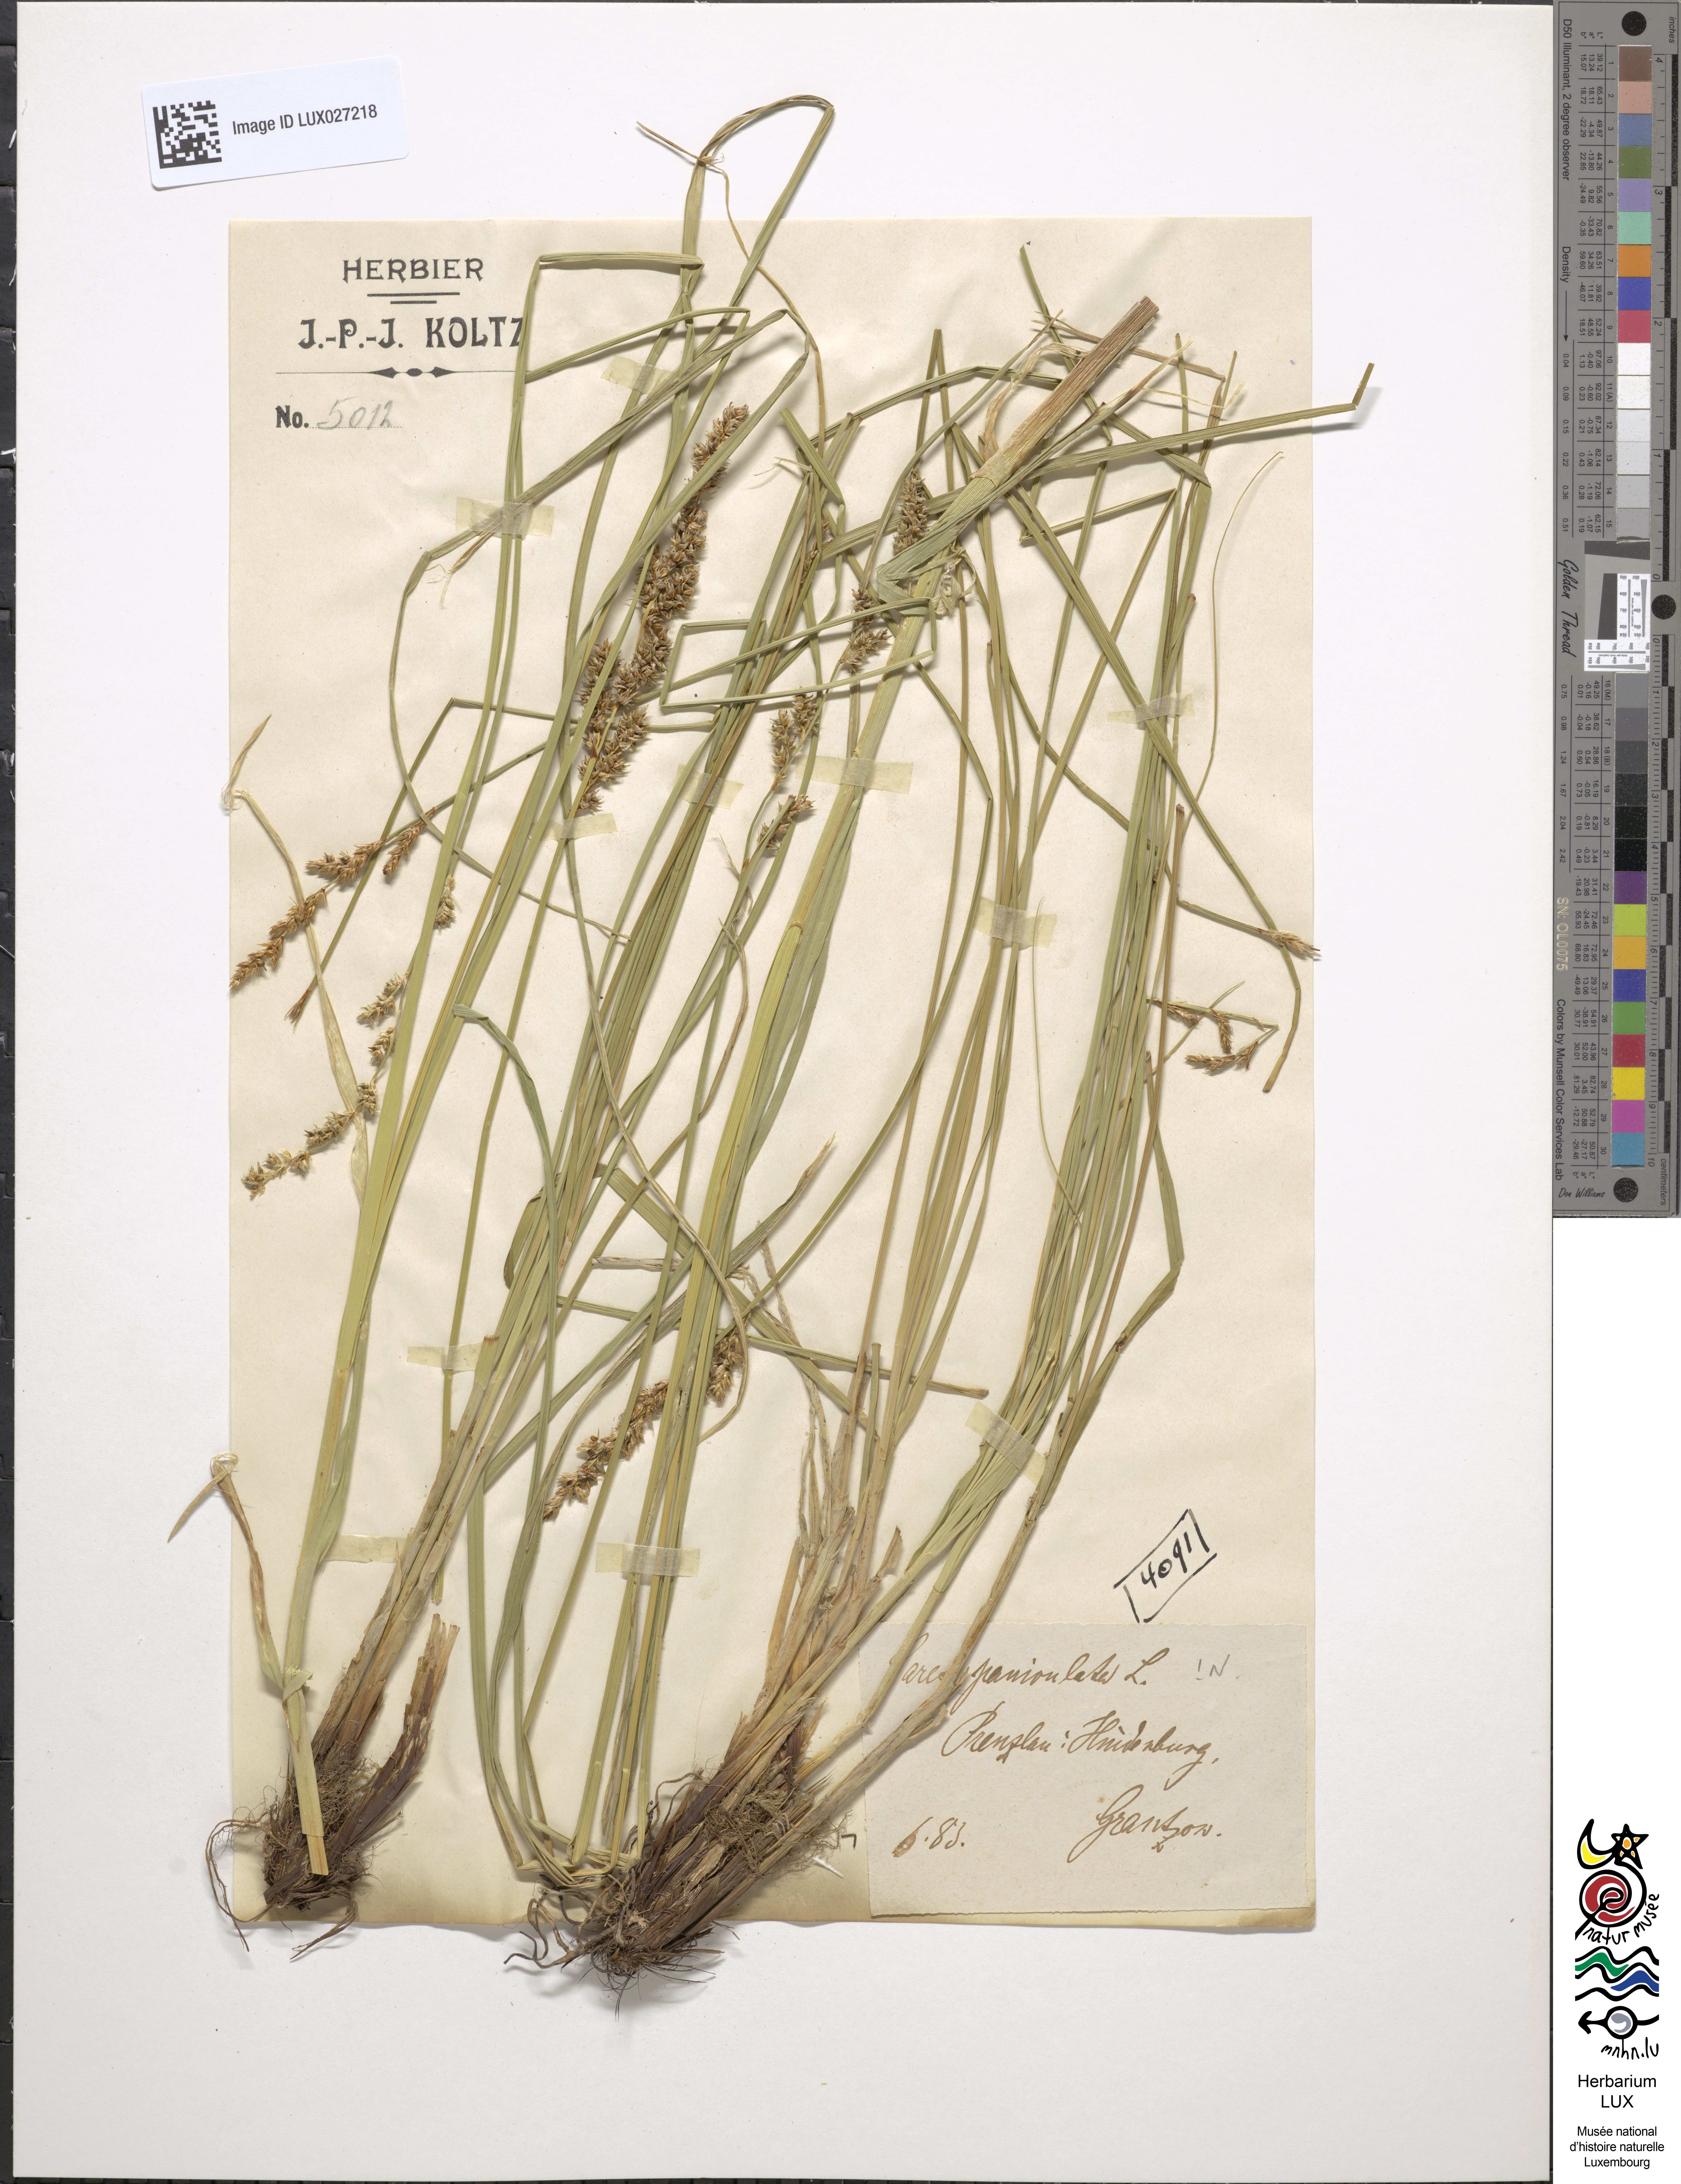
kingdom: Plantae
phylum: Tracheophyta
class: Liliopsida
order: Poales
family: Cyperaceae
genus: Carex
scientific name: Carex paniculata
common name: Greater tussock-sedge
